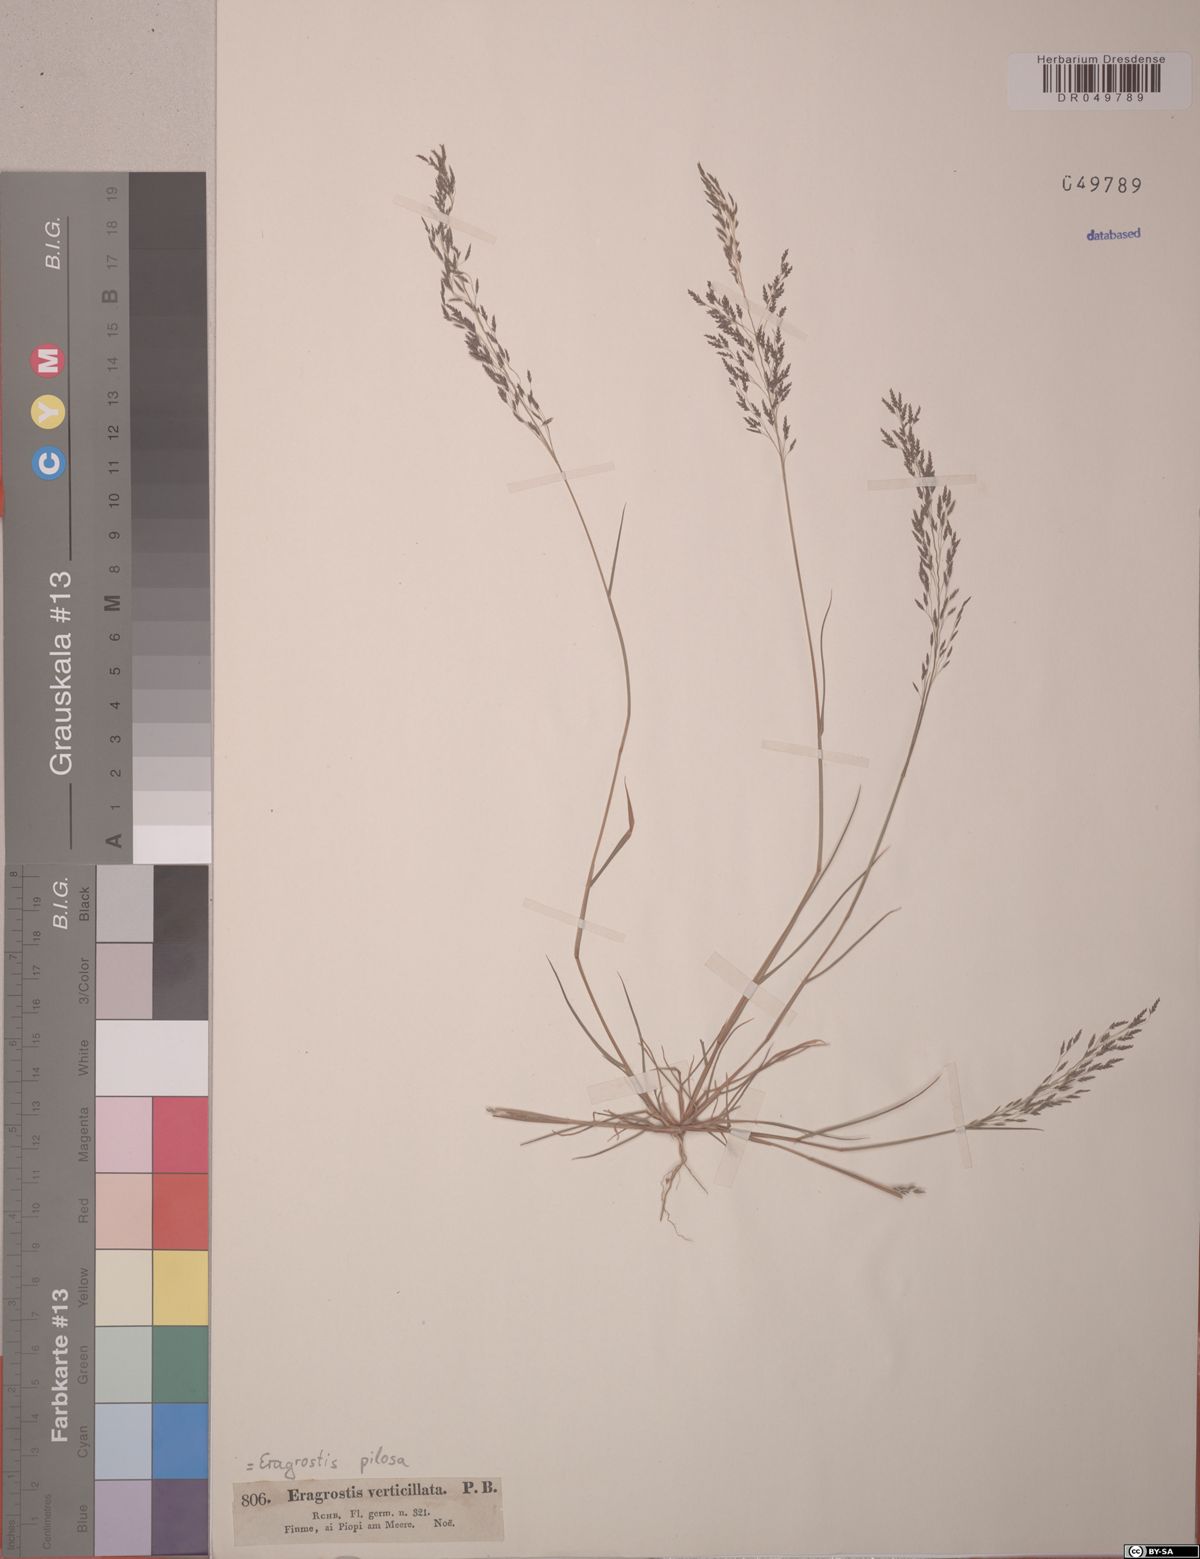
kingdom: Plantae
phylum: Tracheophyta
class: Liliopsida
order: Poales
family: Poaceae
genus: Eragrostis
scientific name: Eragrostis pilosa
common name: Indian lovegrass
